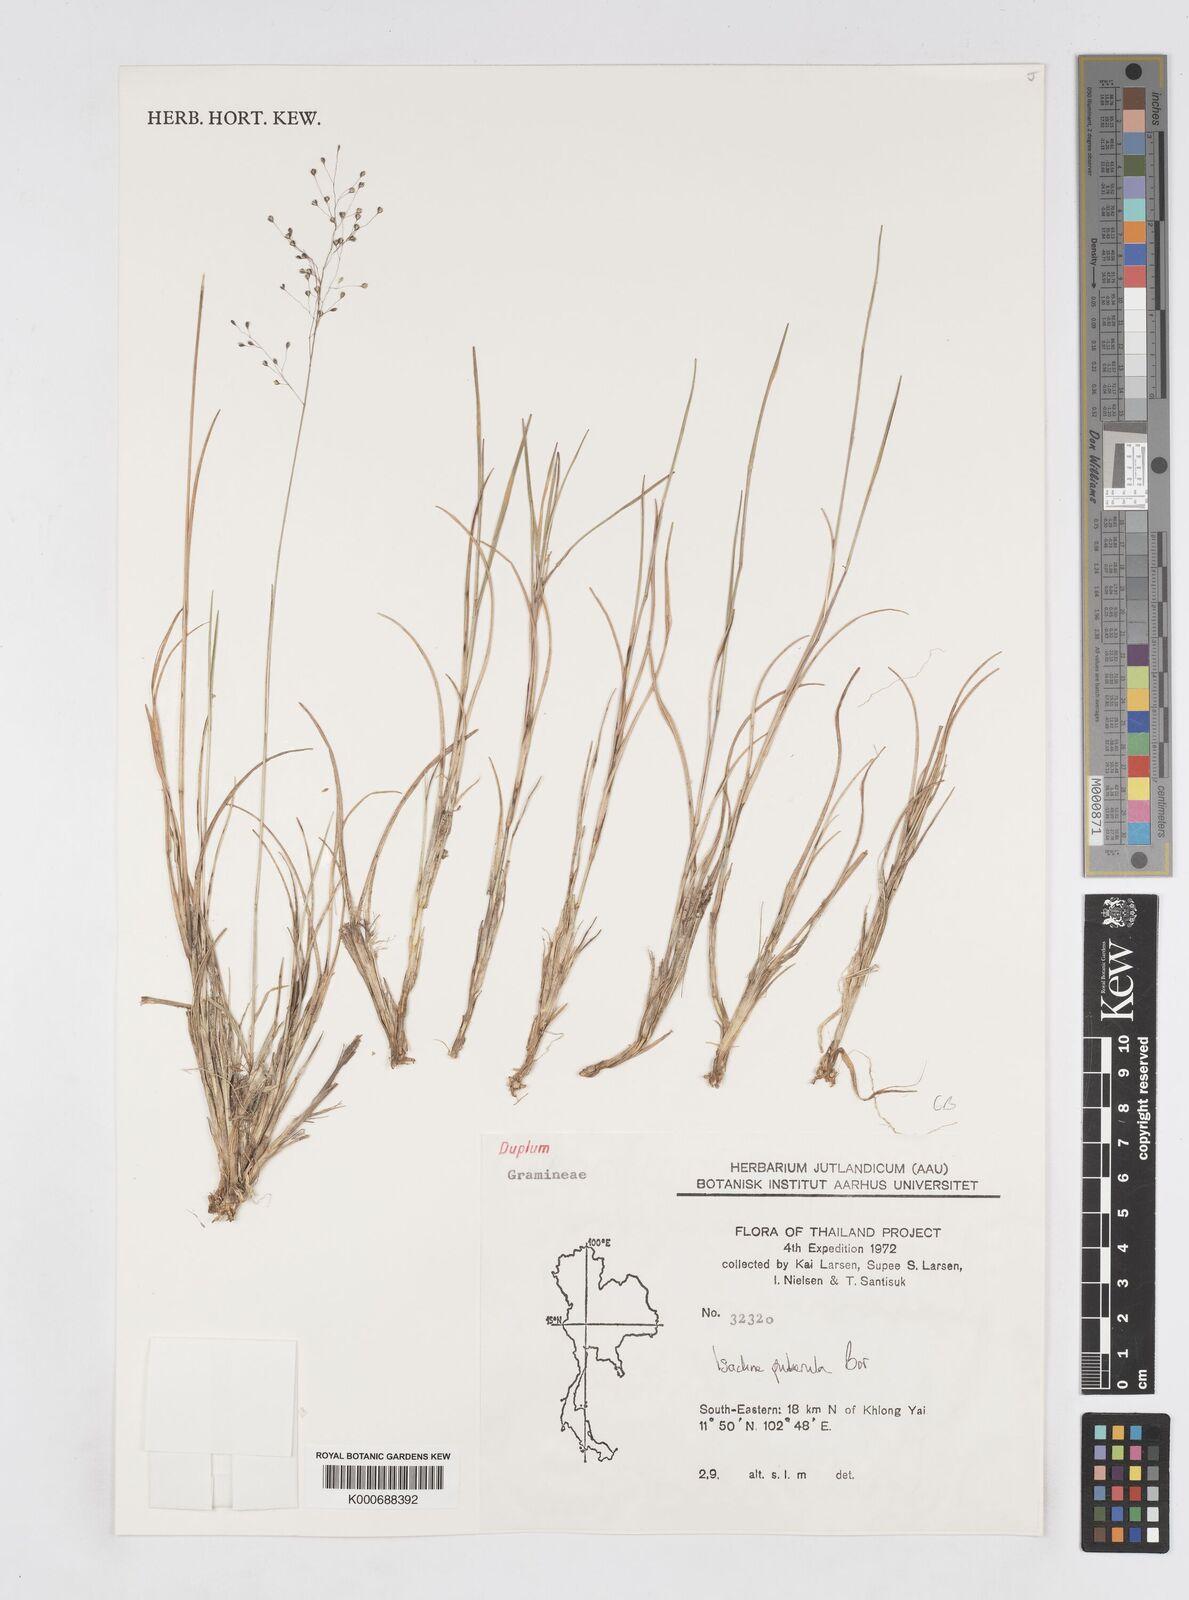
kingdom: Plantae
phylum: Tracheophyta
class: Liliopsida
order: Poales
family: Poaceae
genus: Isachne
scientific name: Isachne puberula
